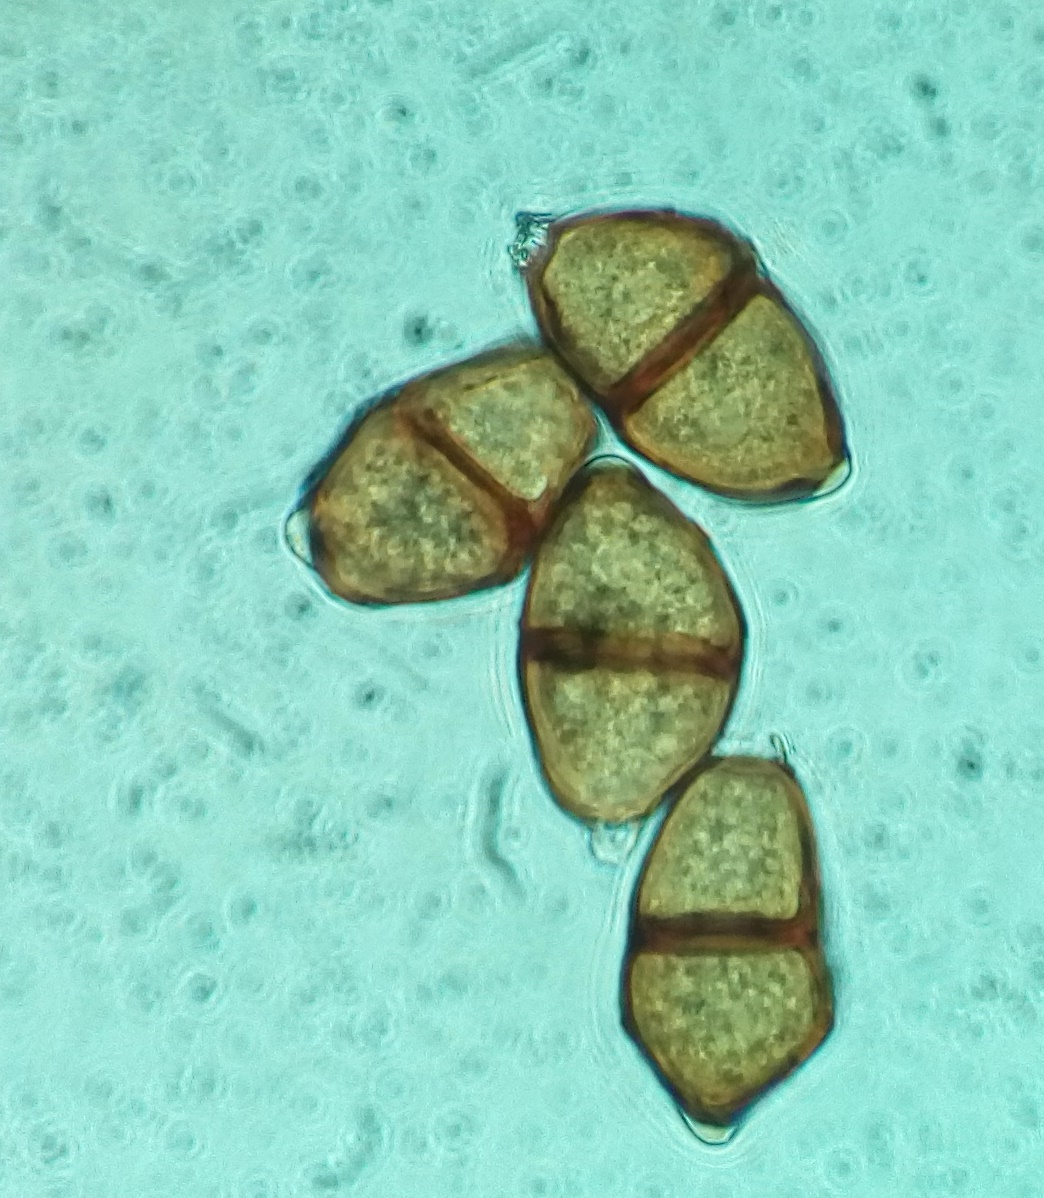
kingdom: Fungi
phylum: Basidiomycota
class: Pucciniomycetes
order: Pucciniales
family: Pucciniaceae
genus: Puccinia
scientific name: Puccinia
